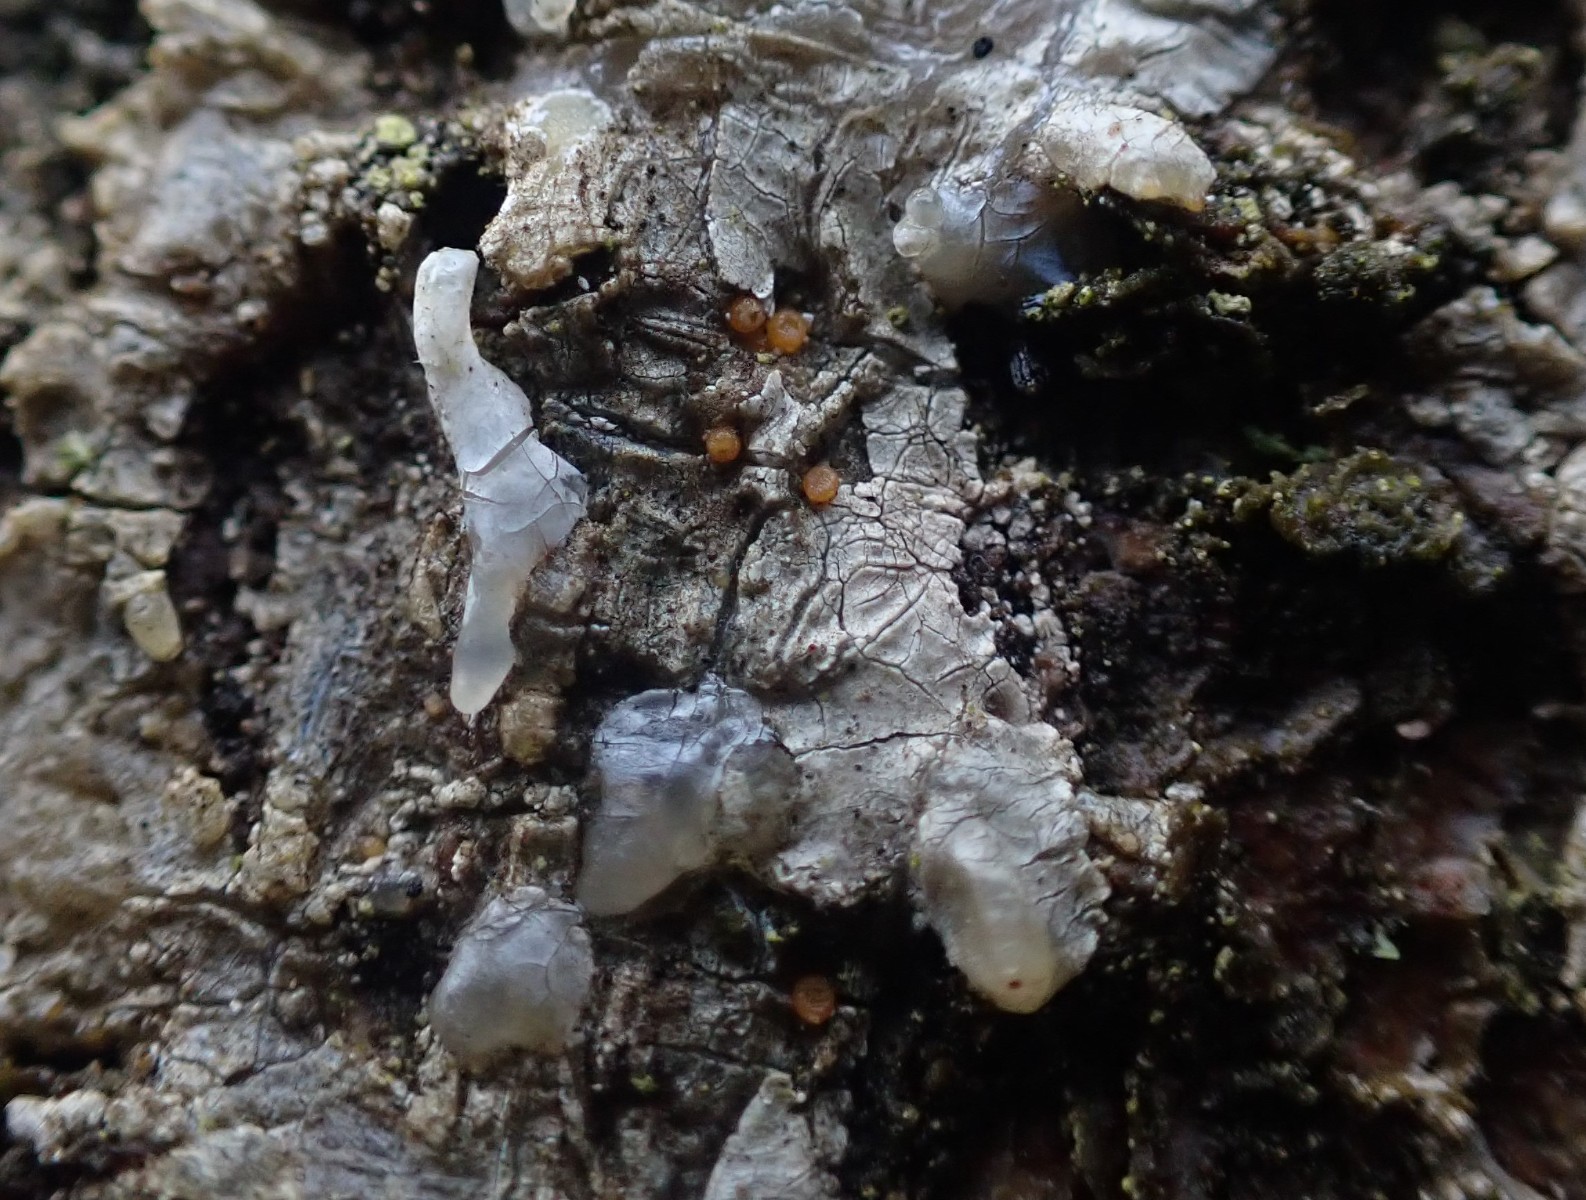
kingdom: Fungi
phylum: Ascomycota
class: Sareomycetes
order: Sareales
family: Sareaceae
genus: Sarea
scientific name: Sarea resinae
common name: orangegul harpiksskive
